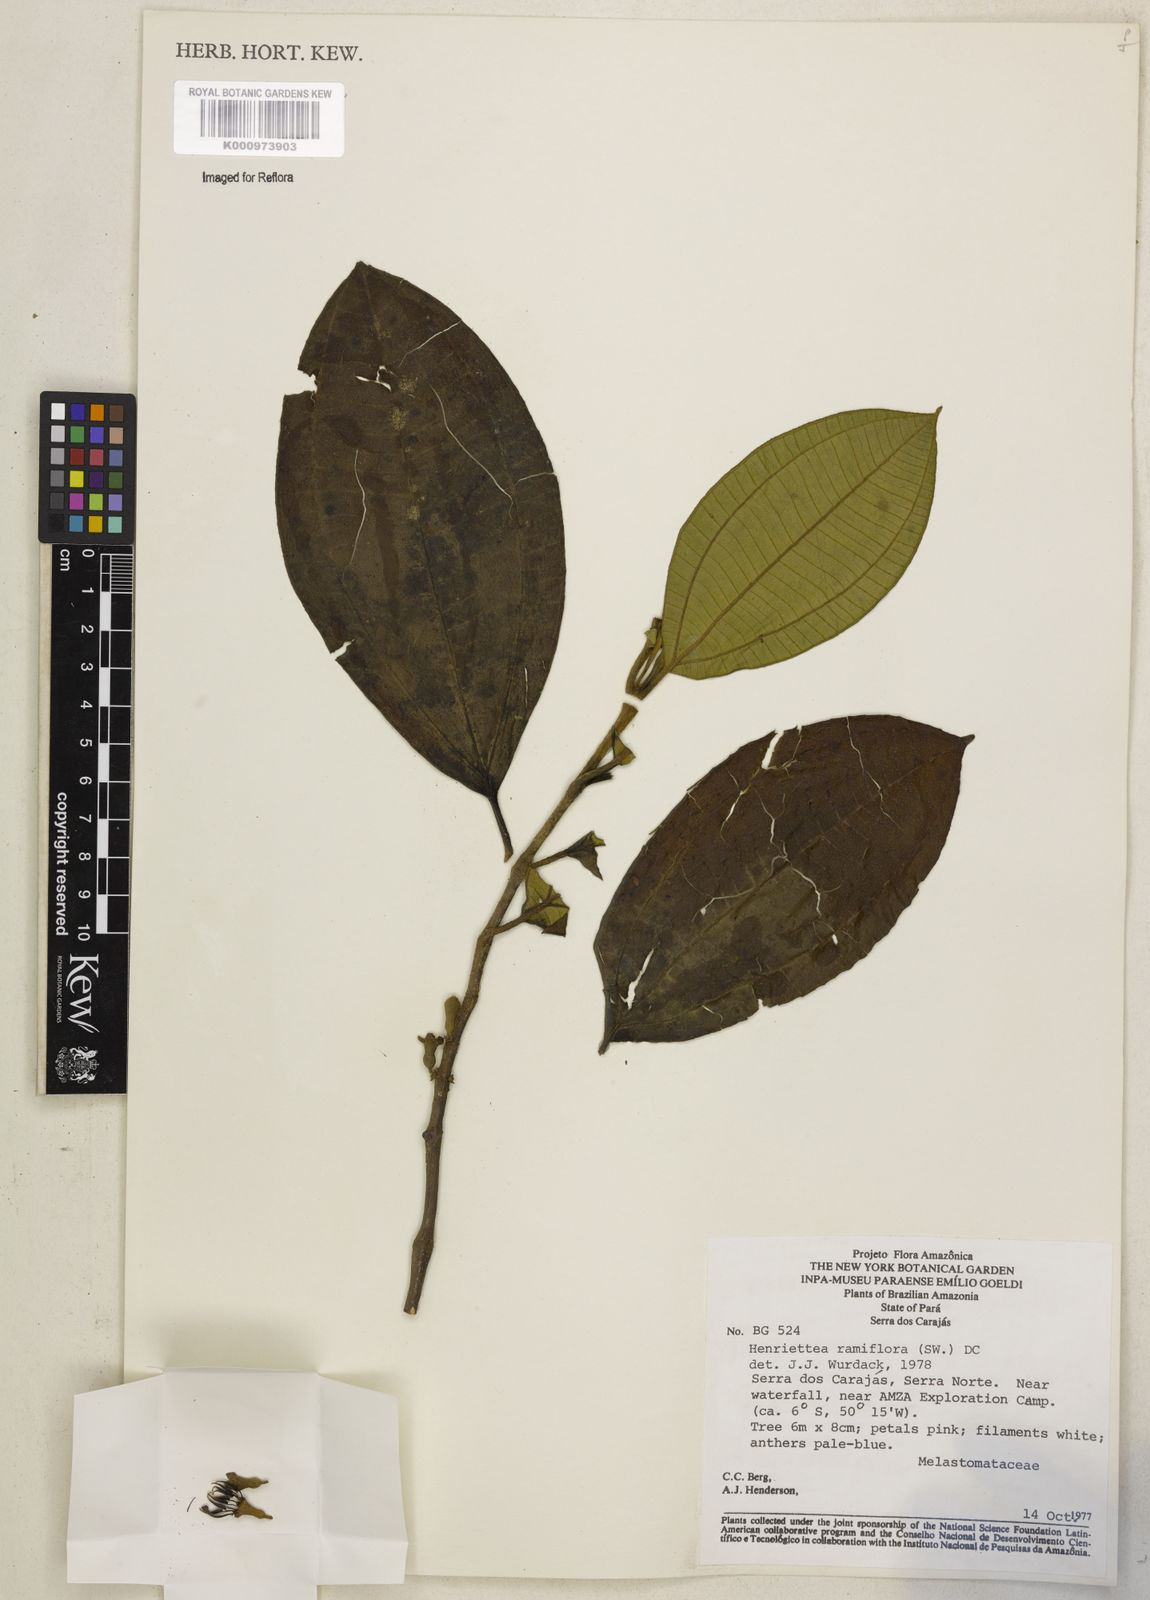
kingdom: Plantae
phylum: Tracheophyta
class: Magnoliopsida
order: Myrtales
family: Melastomataceae
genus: Henriettea
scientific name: Henriettea ramiflora
